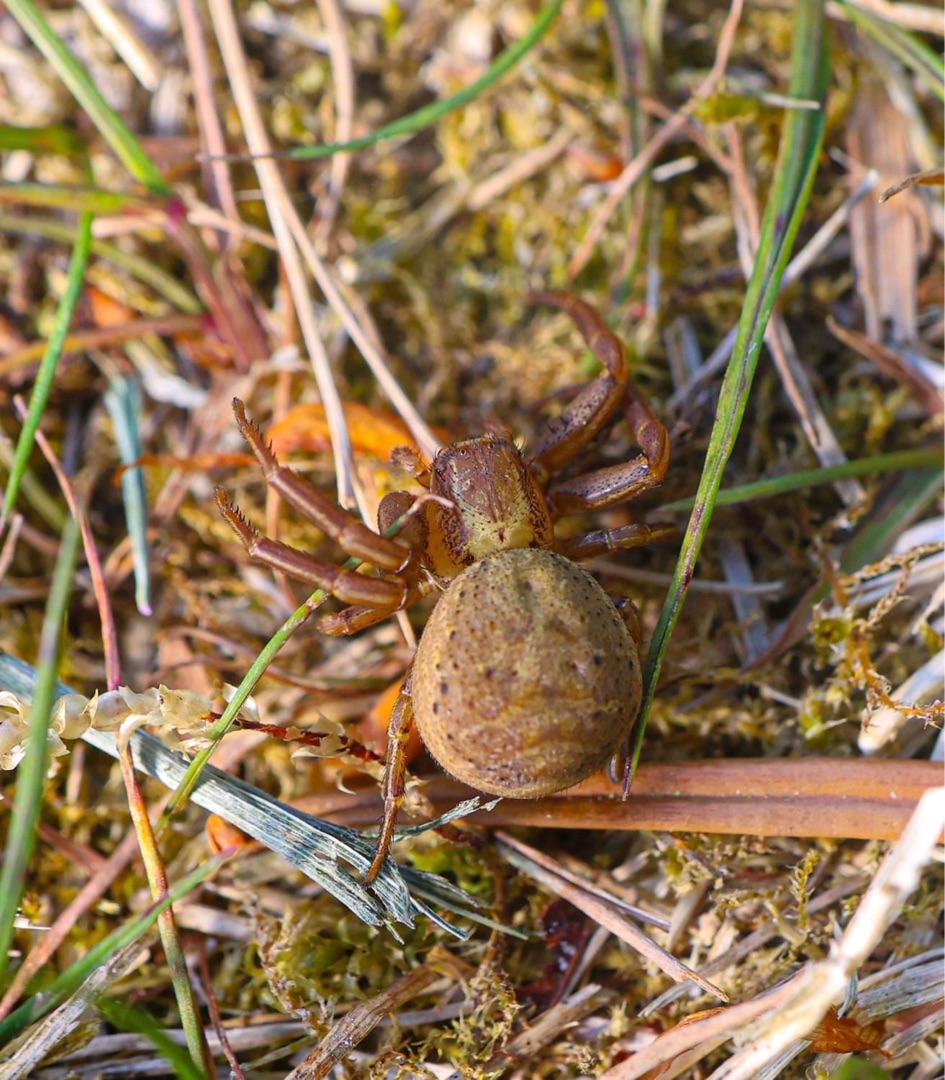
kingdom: Animalia
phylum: Arthropoda
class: Arachnida
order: Araneae
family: Thomisidae
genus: Xysticus
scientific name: Xysticus bifasciatus
